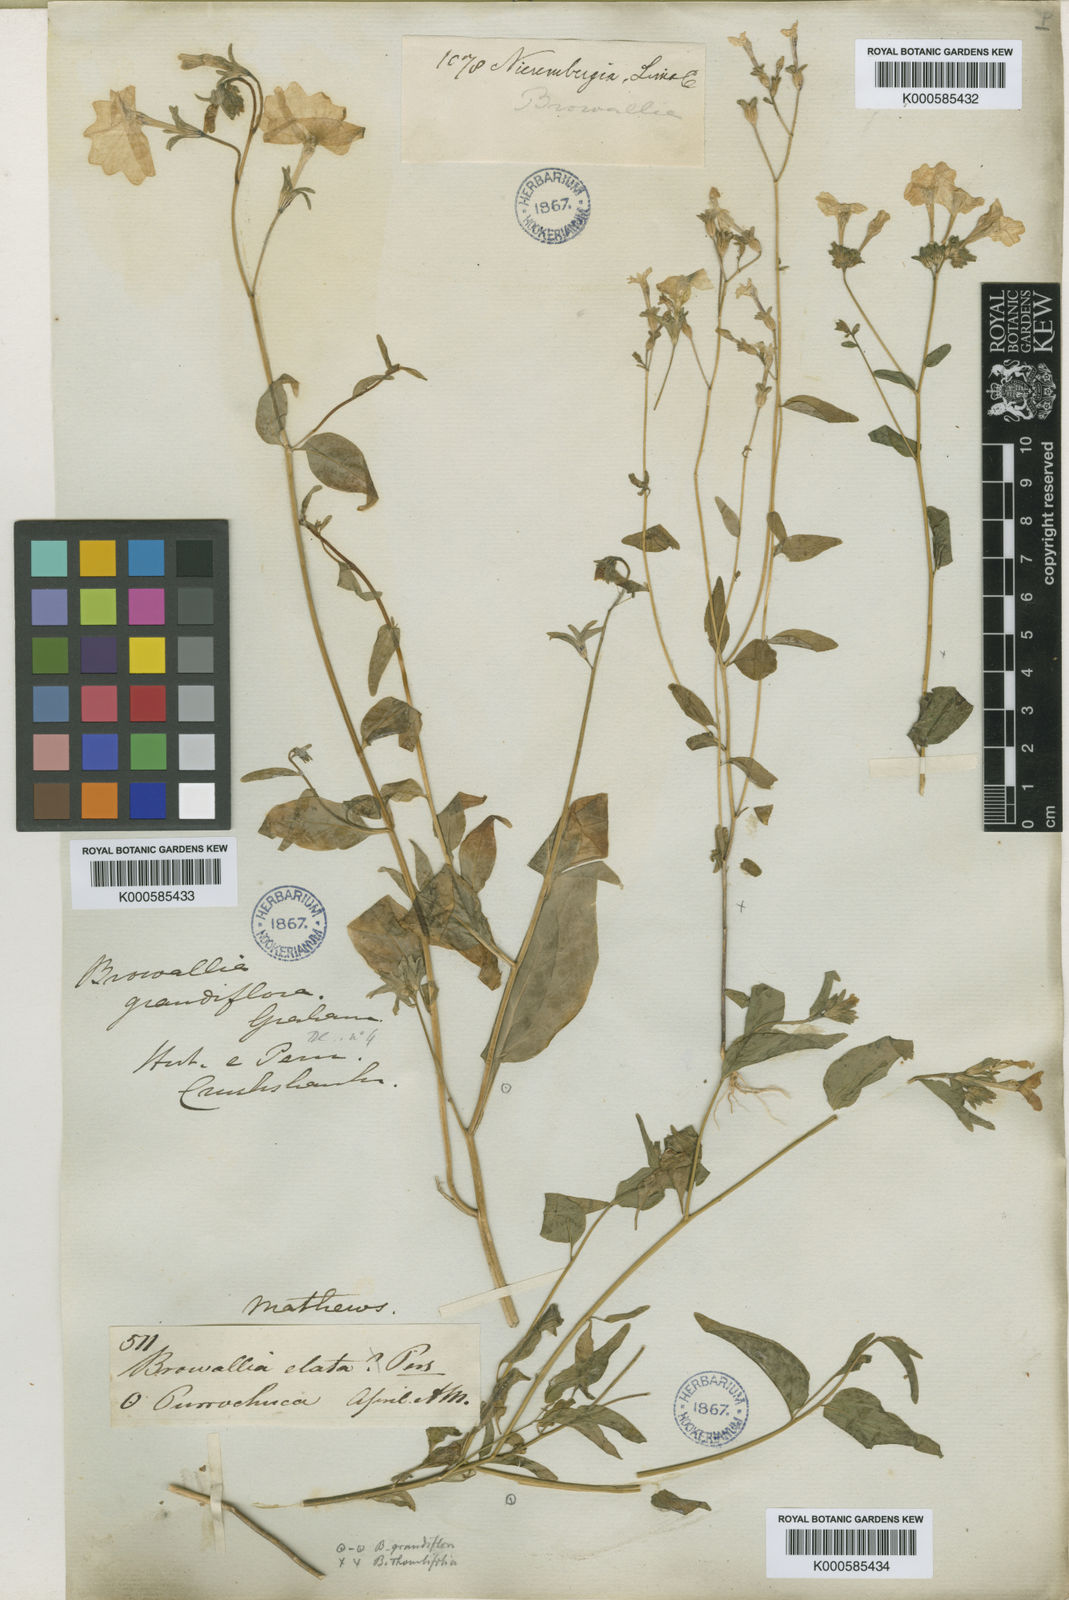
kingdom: Plantae
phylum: Tracheophyta
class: Magnoliopsida
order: Solanales
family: Solanaceae
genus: Brunfelsia
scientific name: Brunfelsia grandiflora
